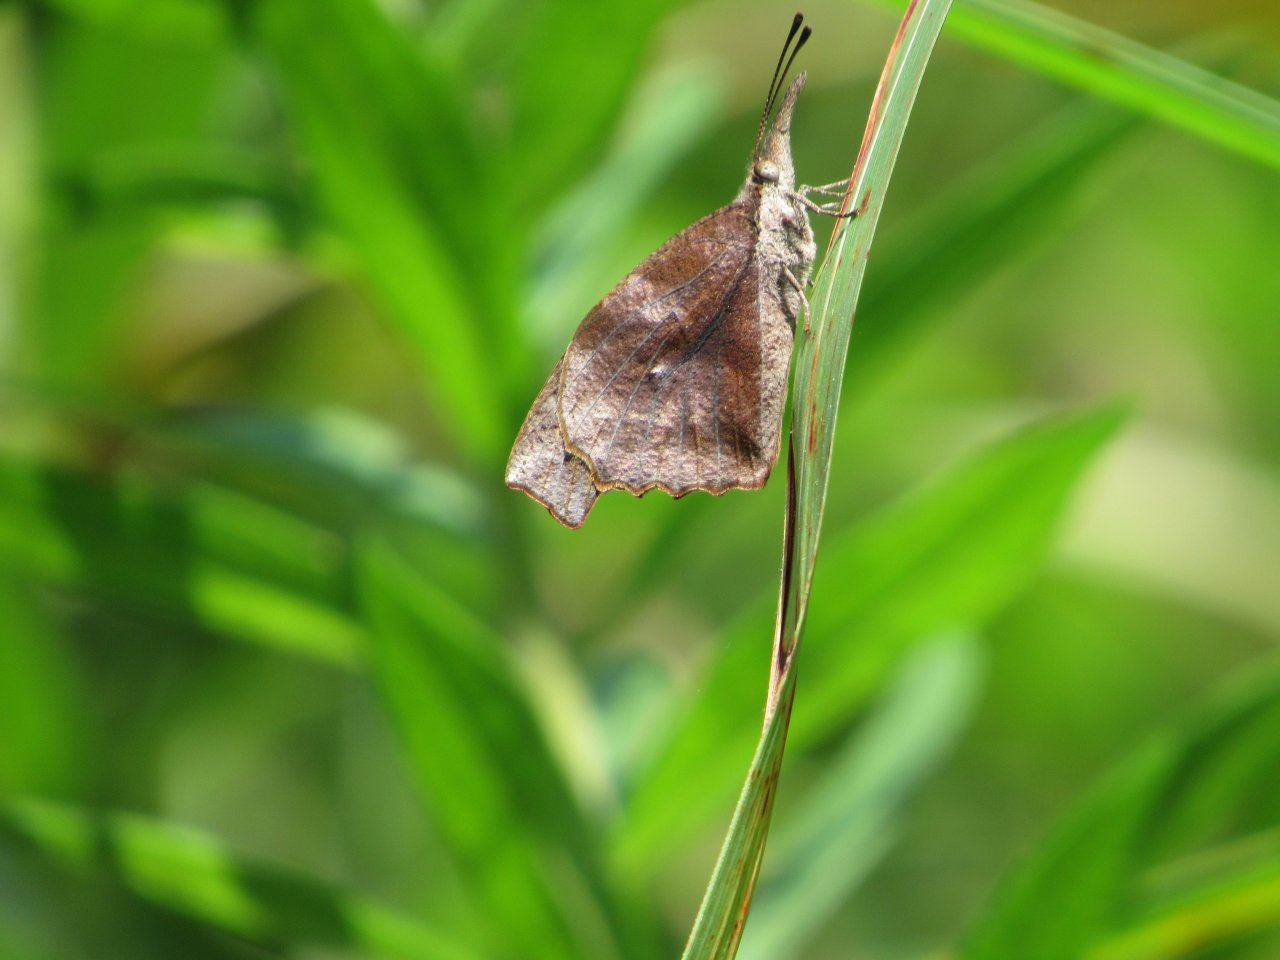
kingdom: Animalia
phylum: Arthropoda
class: Insecta
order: Lepidoptera
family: Nymphalidae
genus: Libytheana
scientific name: Libytheana carinenta
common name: American Snout
